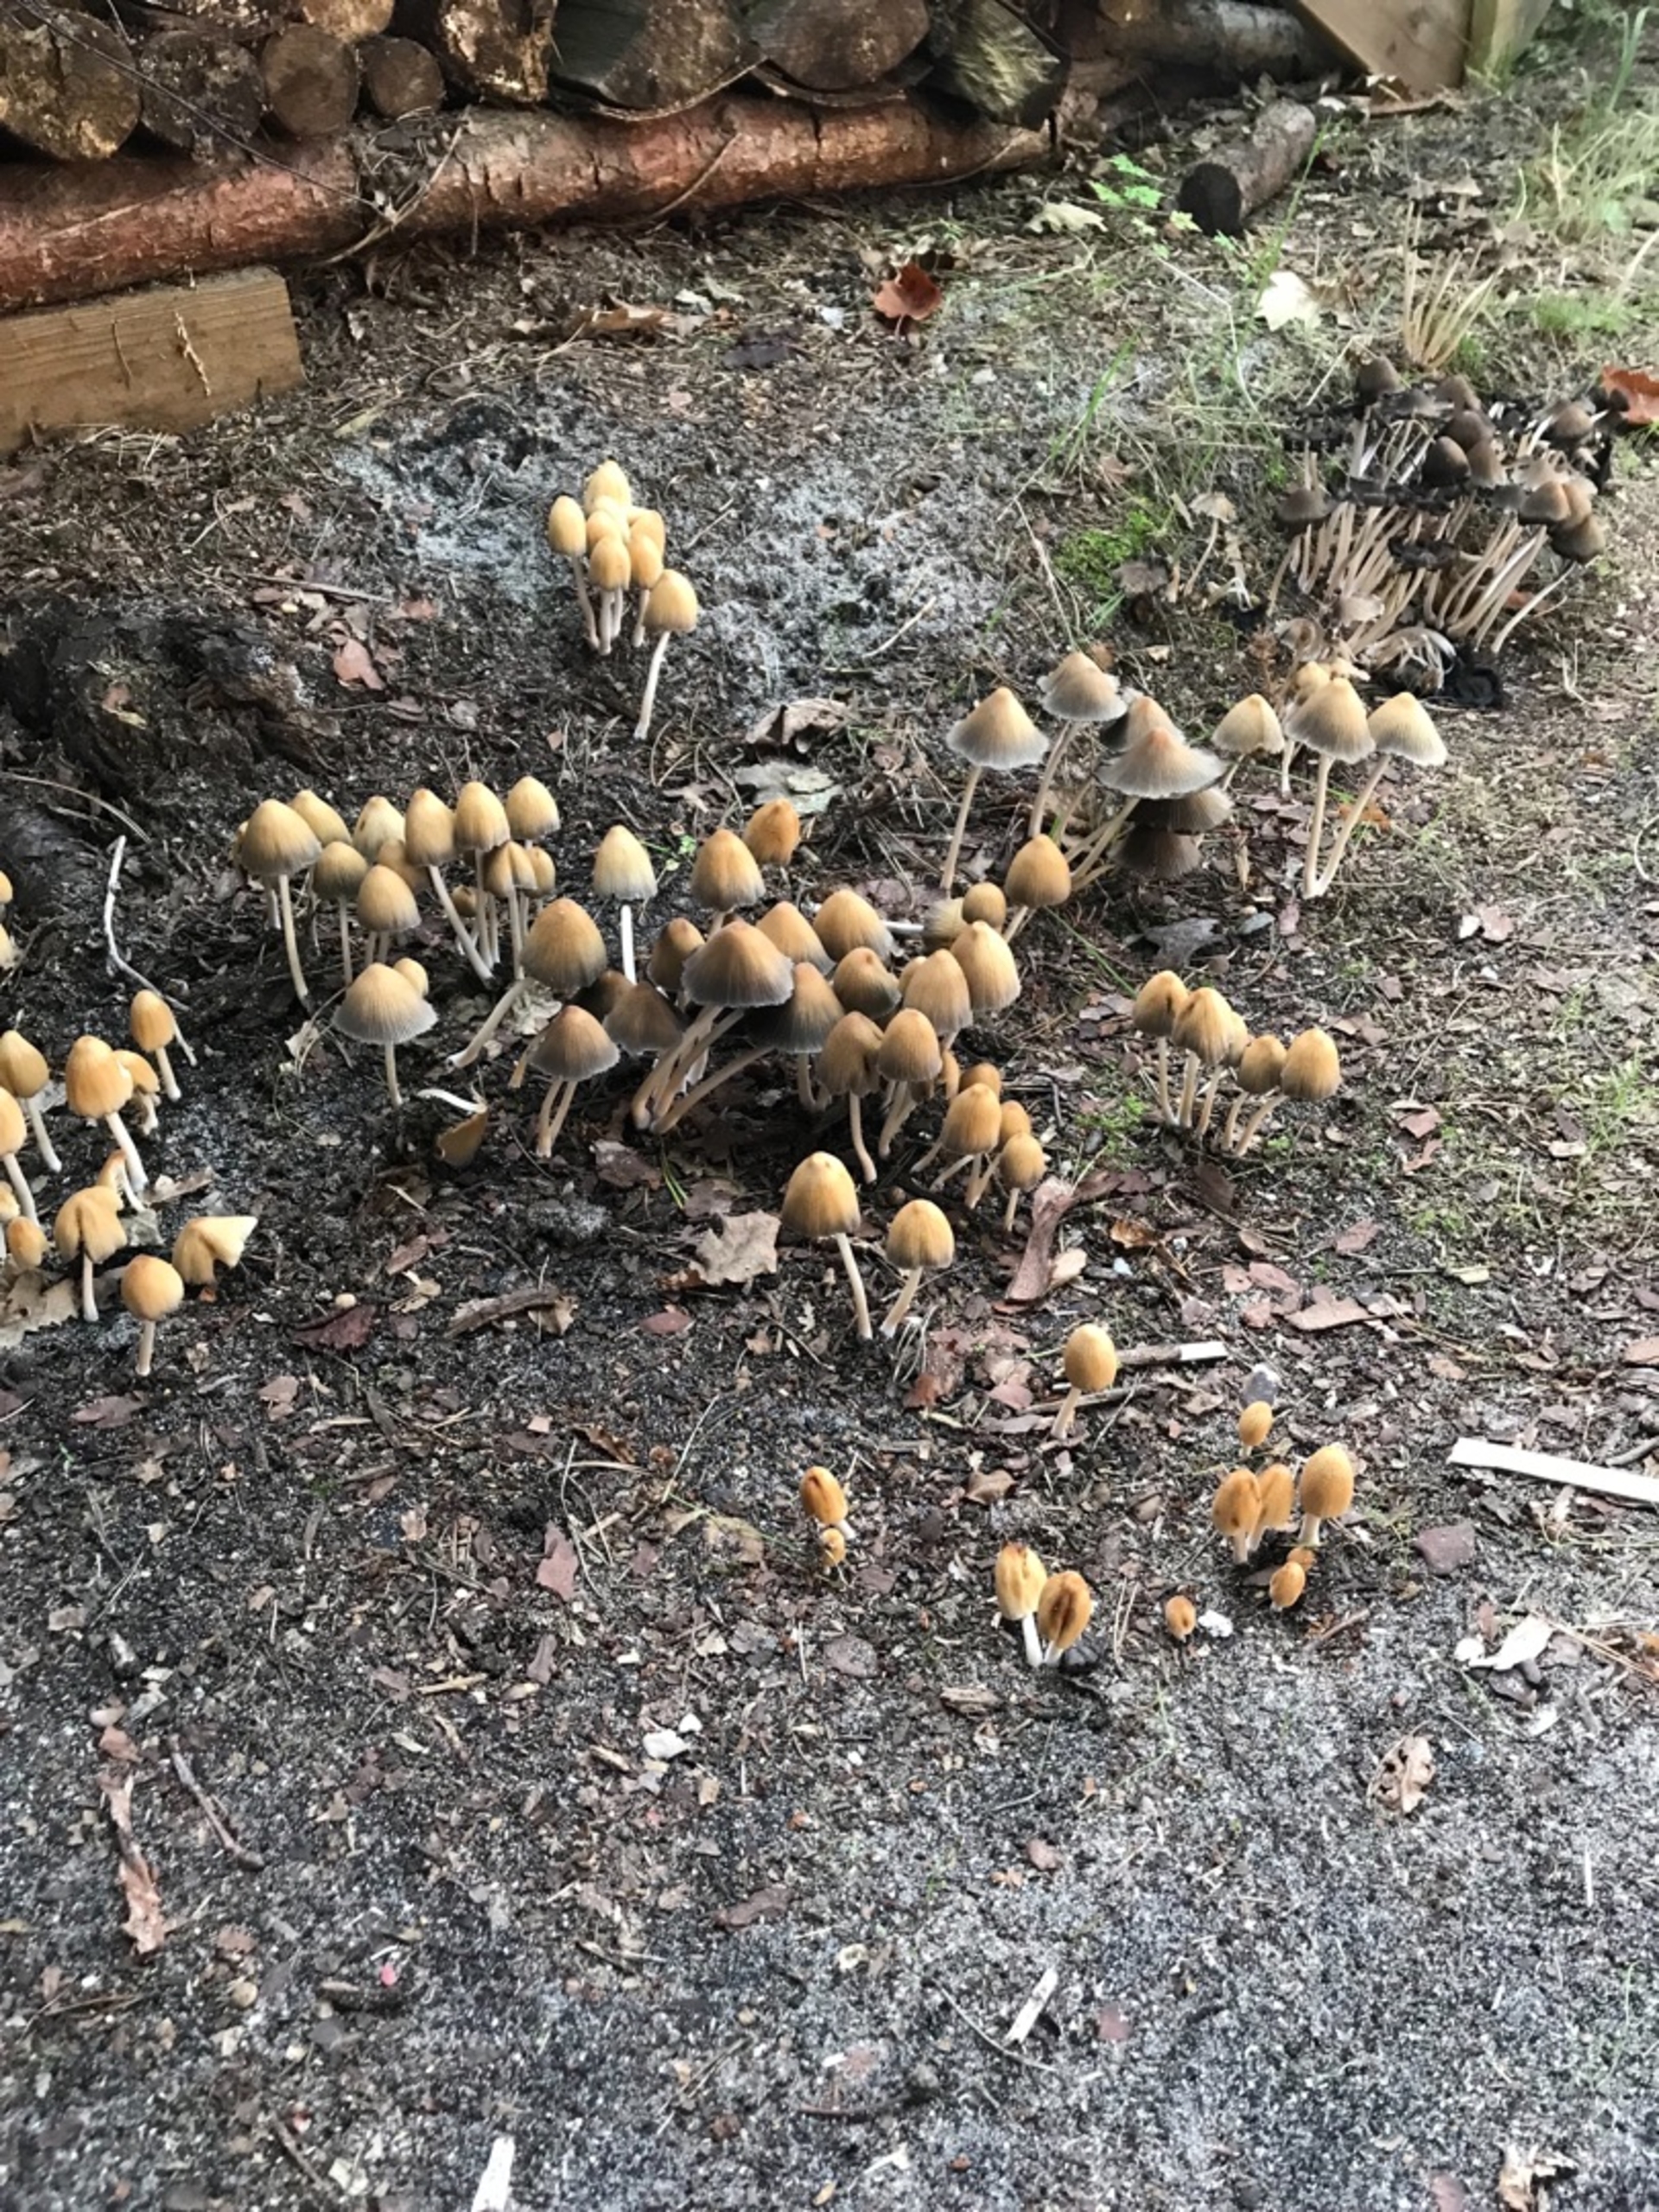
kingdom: Fungi
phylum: Basidiomycota
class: Agaricomycetes
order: Agaricales
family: Psathyrellaceae
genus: Coprinellus
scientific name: Coprinellus
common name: Blækhat
